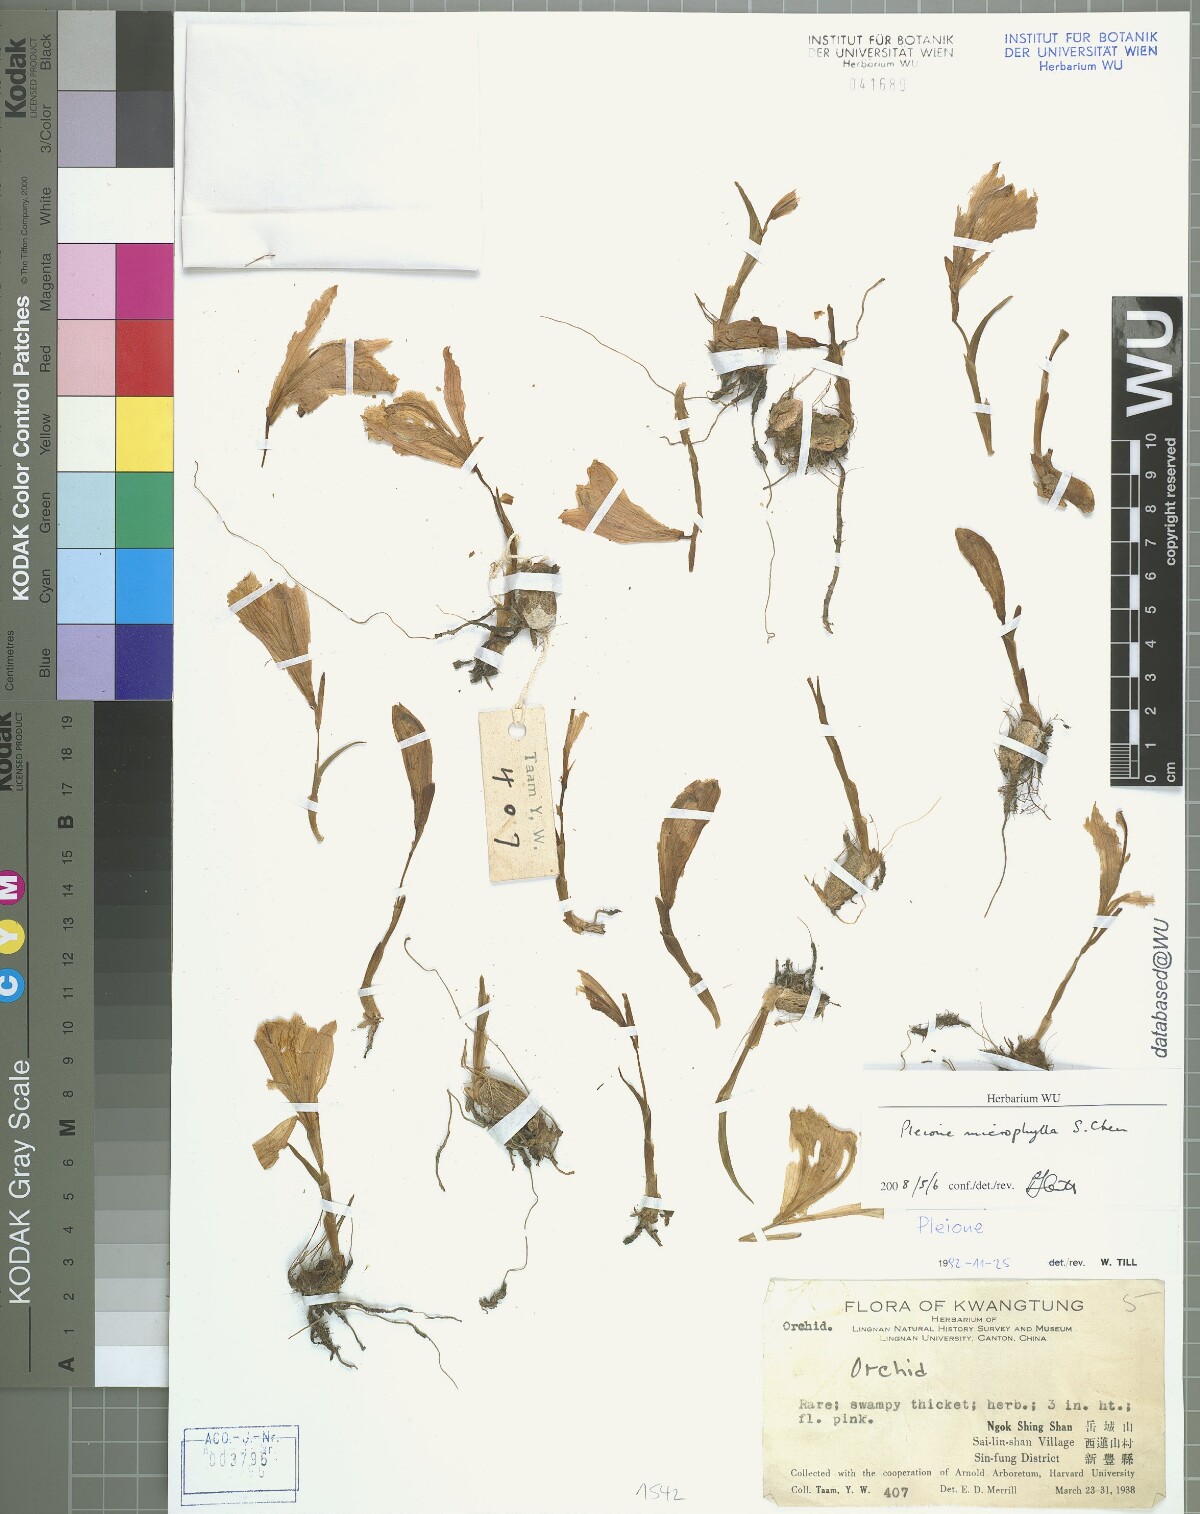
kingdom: Plantae
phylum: Tracheophyta
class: Liliopsida
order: Asparagales
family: Orchidaceae
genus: Pleione
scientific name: Pleione microphylla
